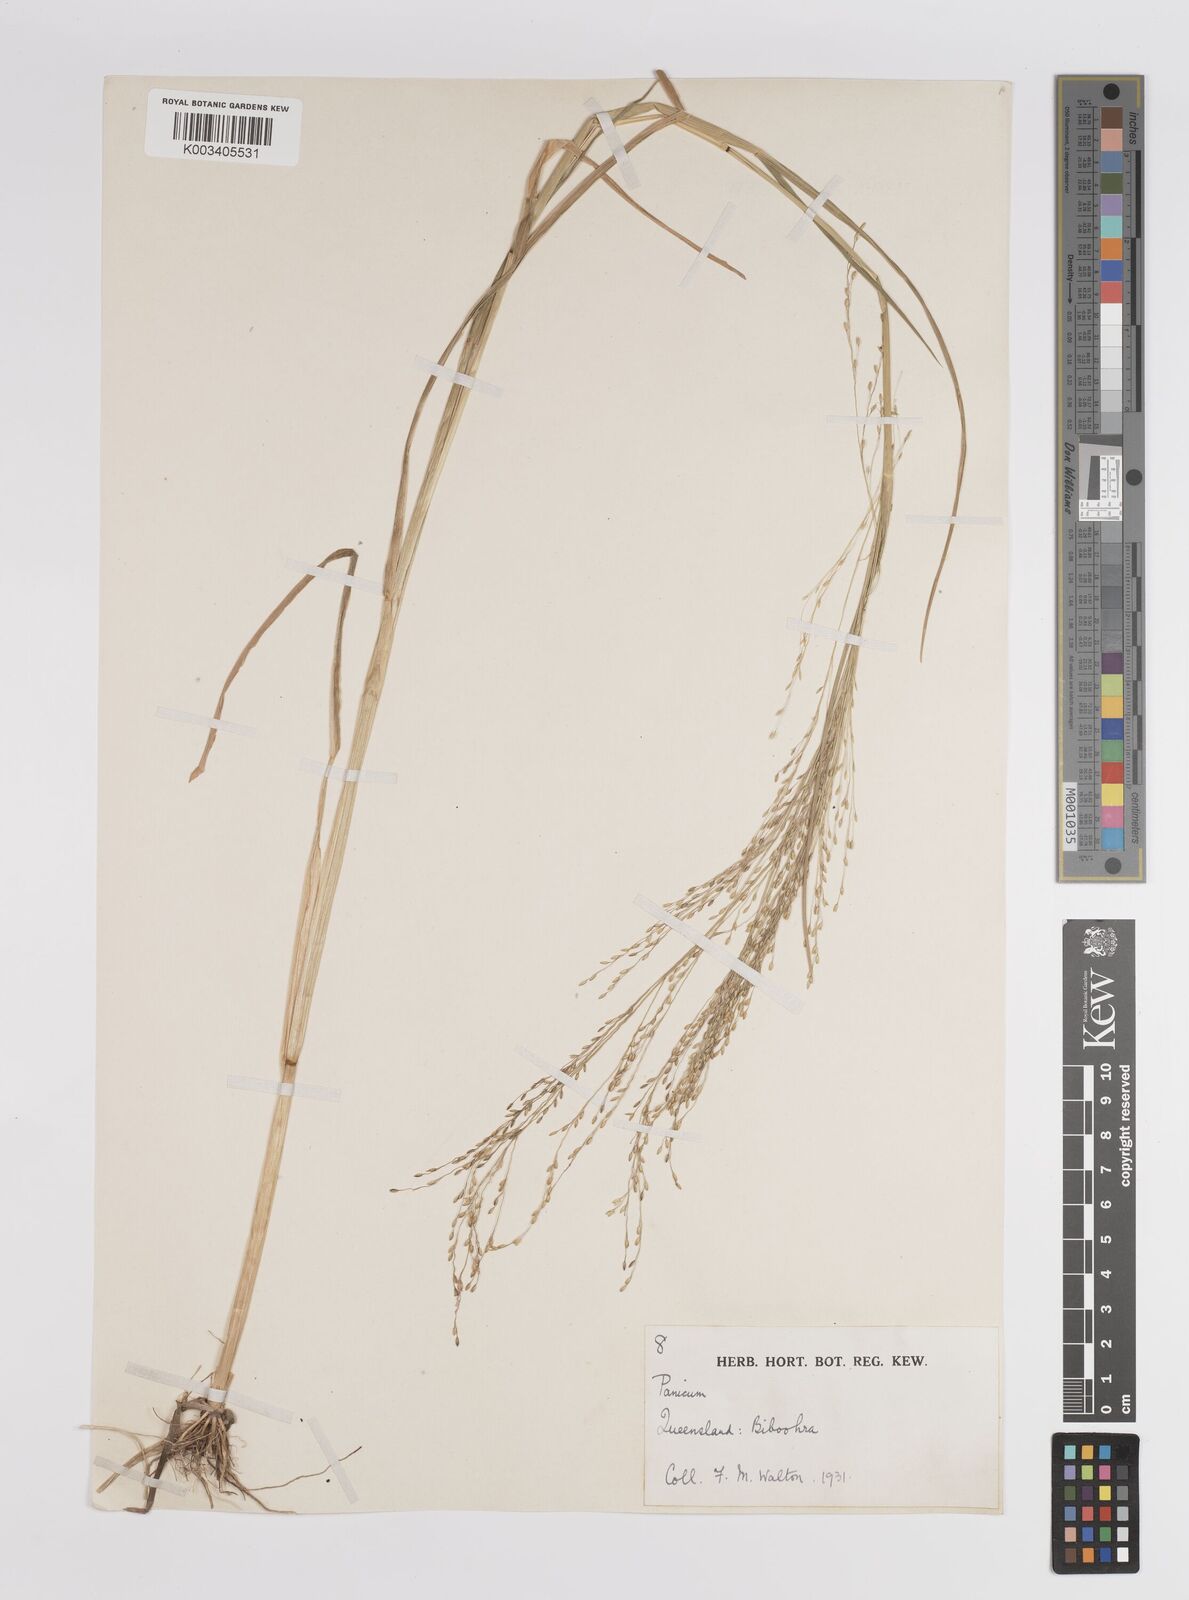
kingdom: Plantae
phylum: Tracheophyta
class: Liliopsida
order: Poales
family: Poaceae
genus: Panicum
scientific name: Panicum
